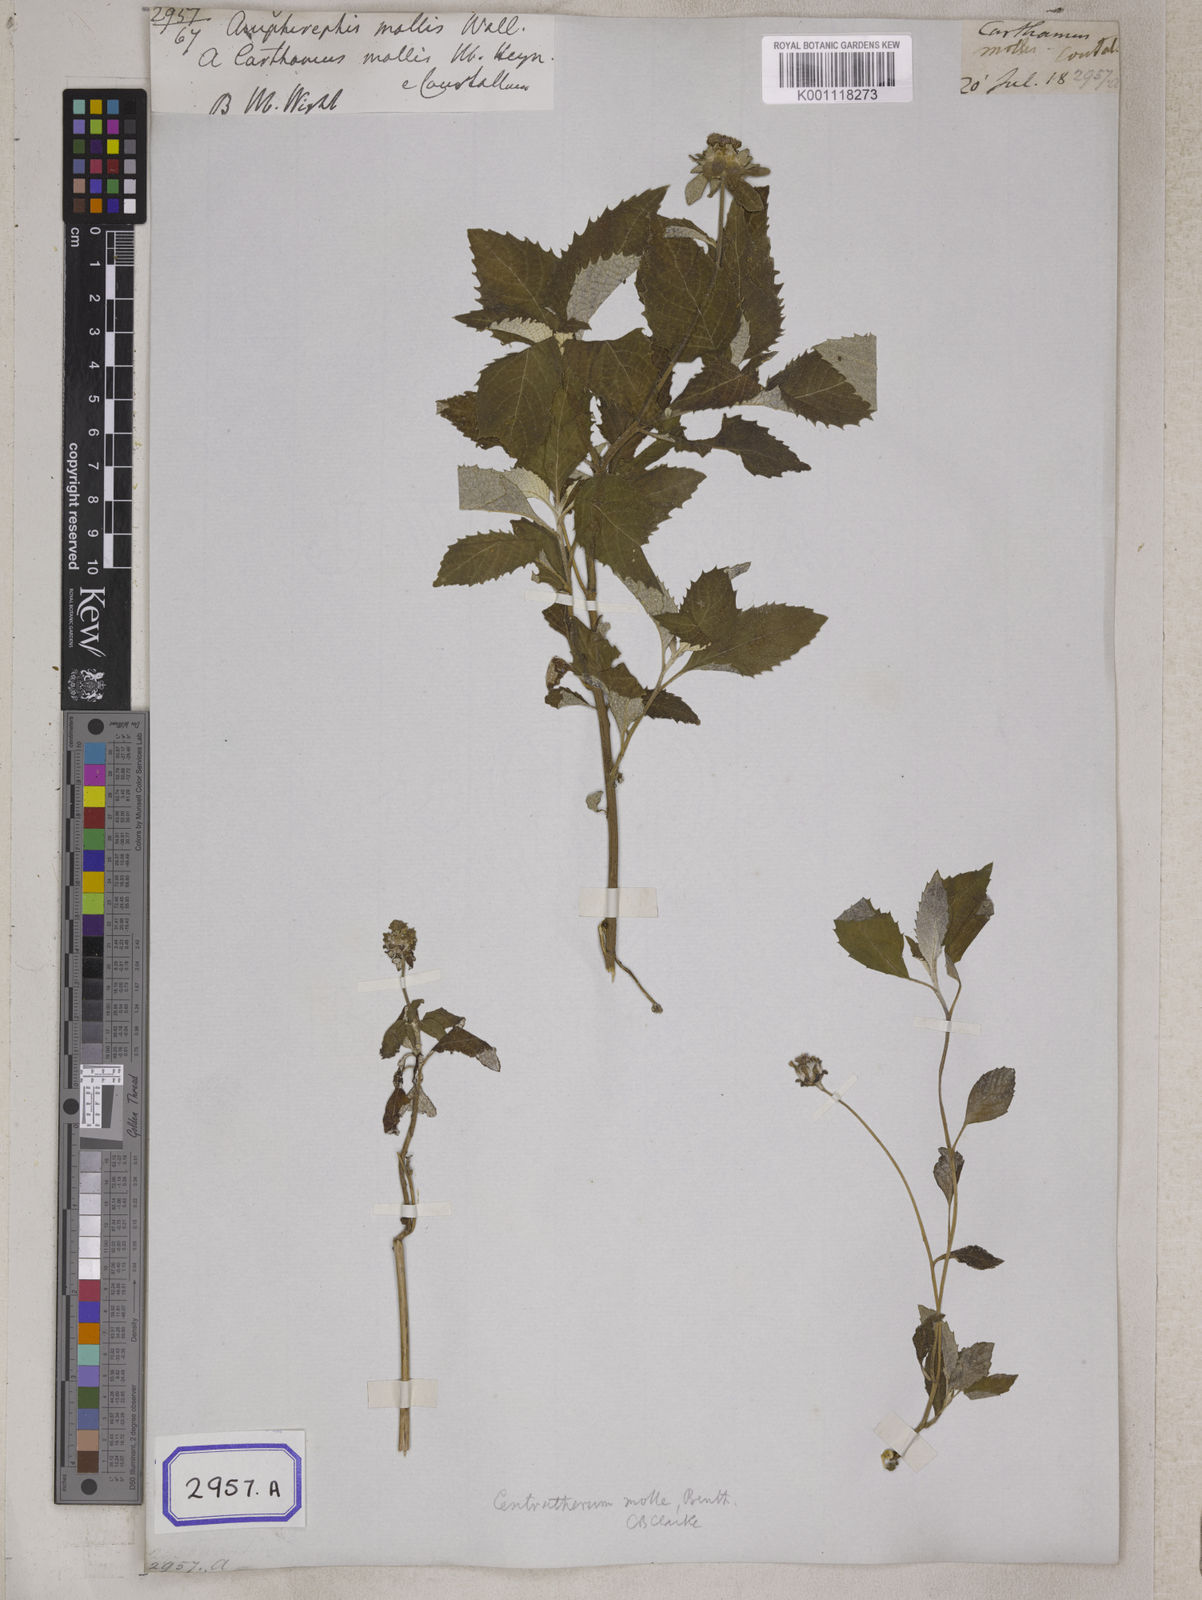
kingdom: Plantae
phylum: Tracheophyta
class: Magnoliopsida
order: Asterales
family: Asteraceae
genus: Phyllocephalum
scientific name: Phyllocephalum scabridum
